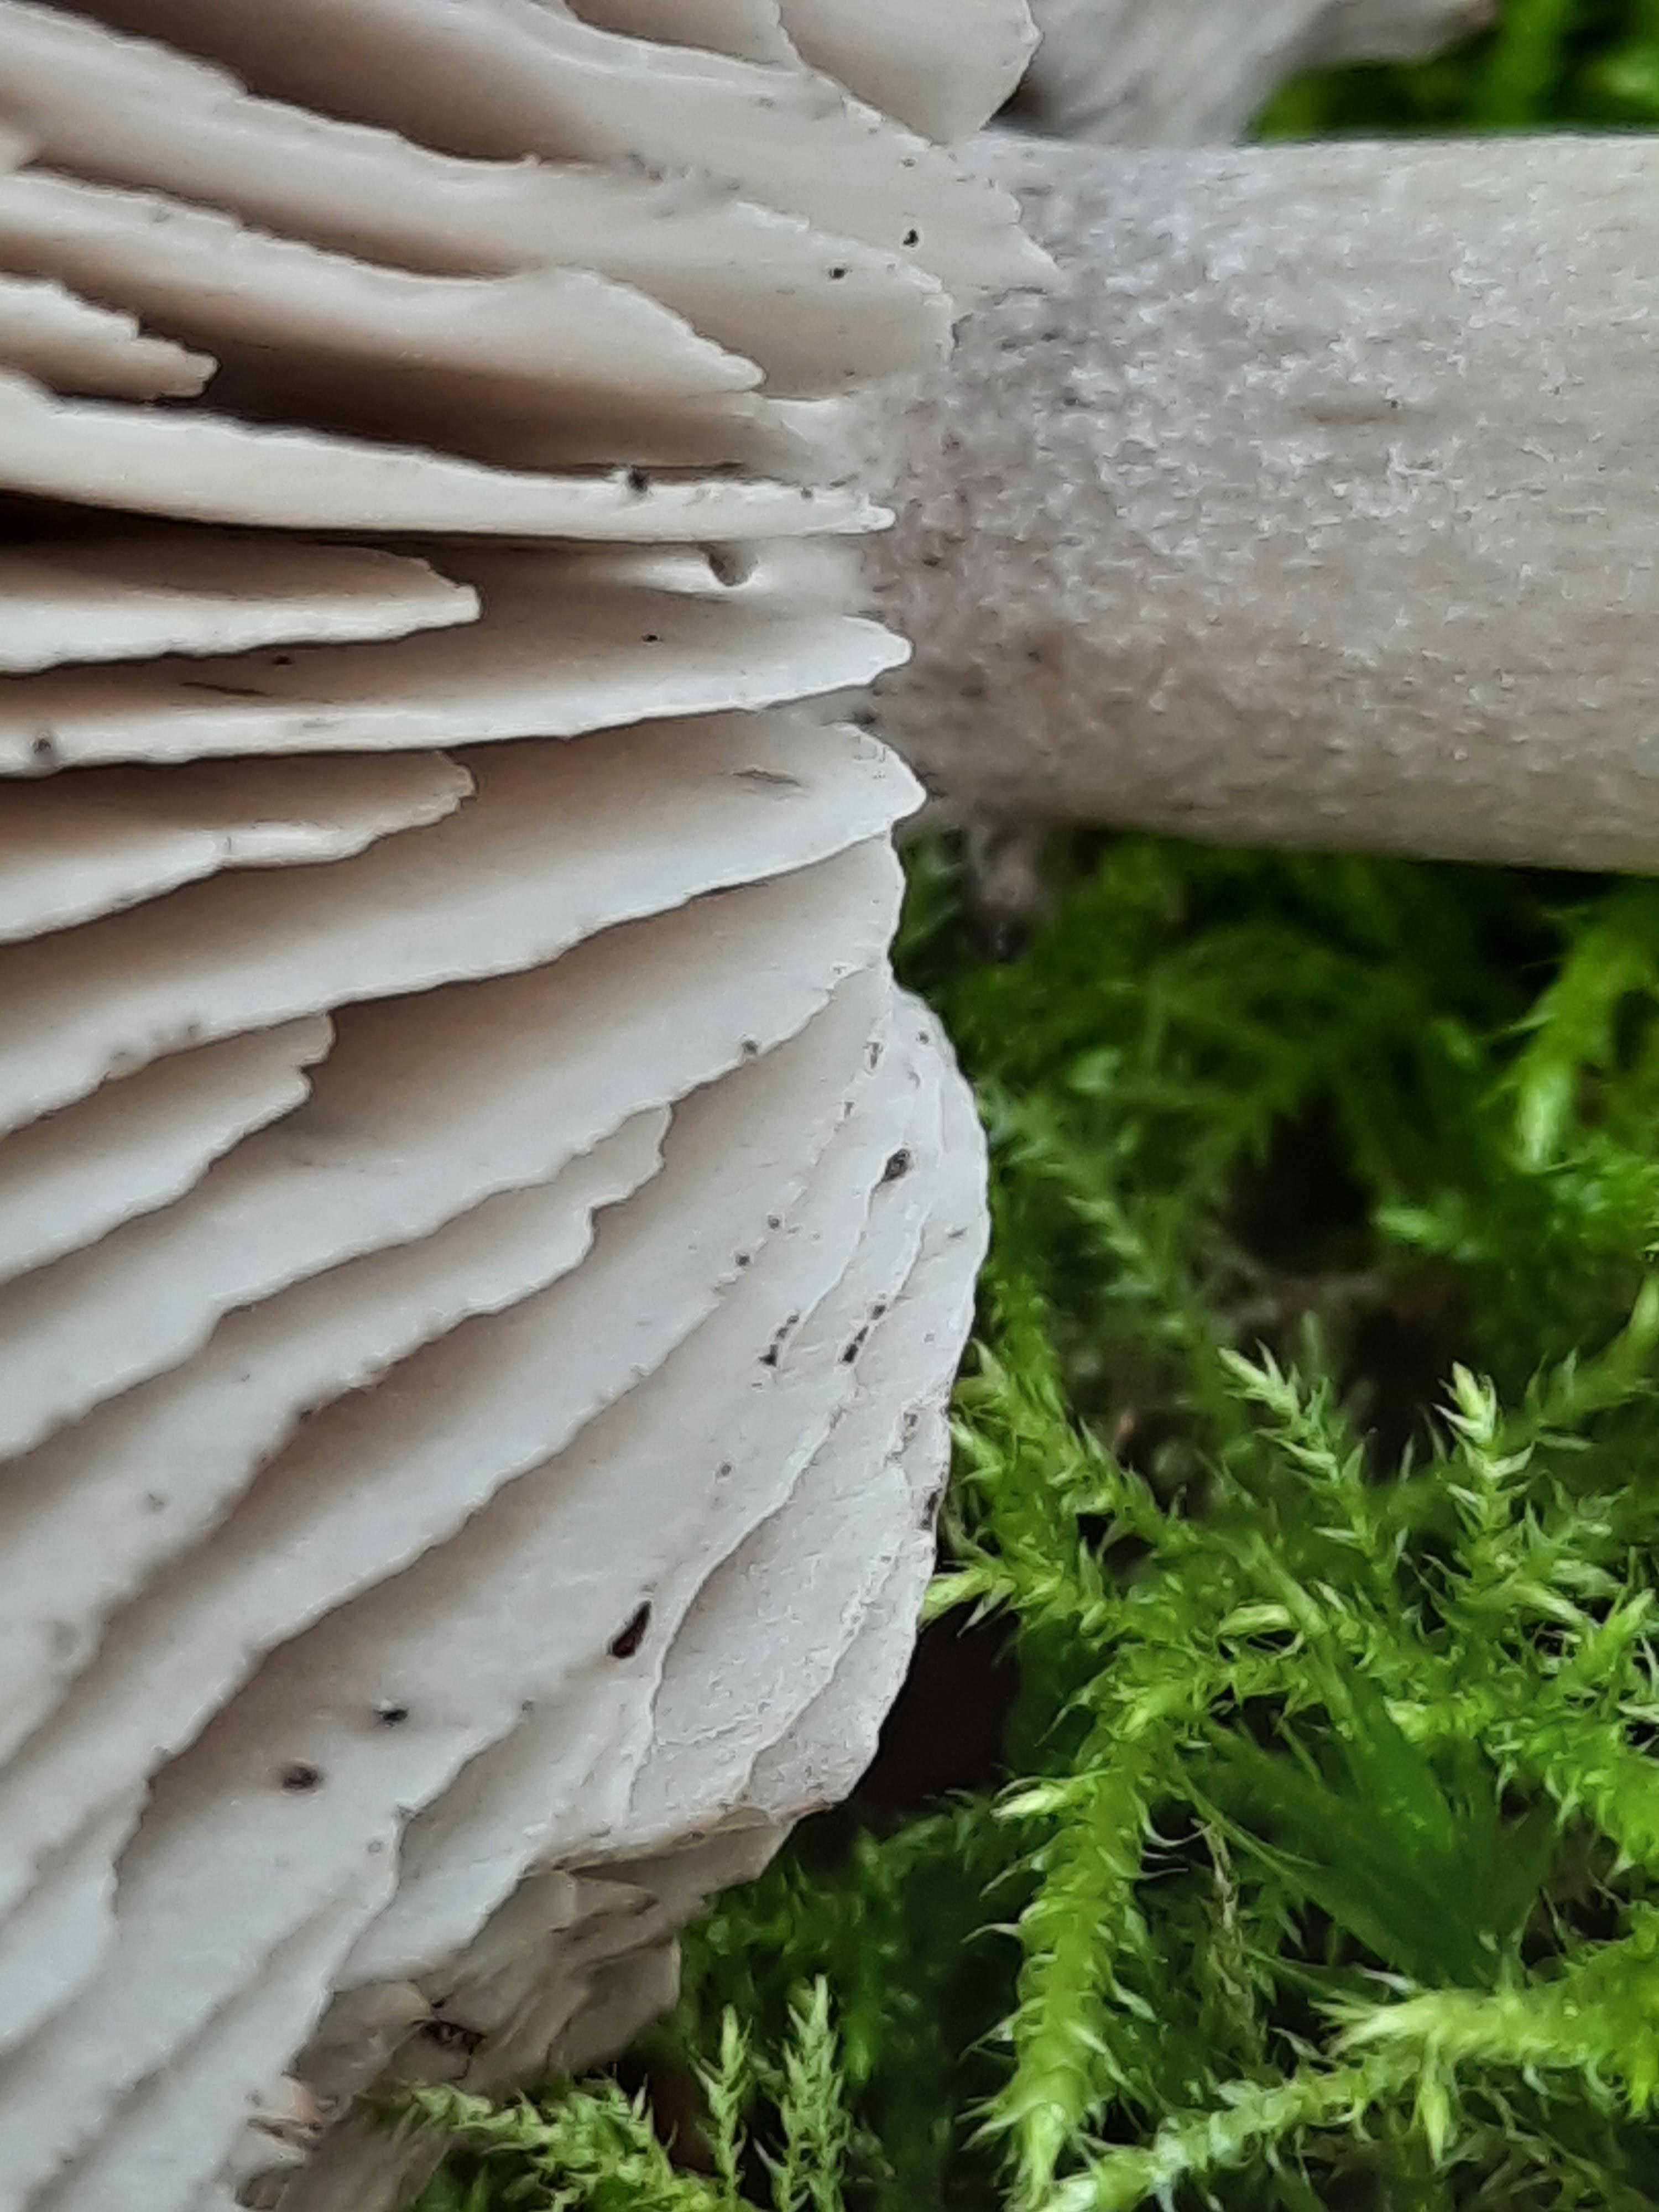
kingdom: Fungi
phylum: Basidiomycota
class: Agaricomycetes
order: Agaricales
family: Tricholomataceae
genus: Tricholoma
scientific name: Tricholoma sciodes
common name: stribet ridderhat
